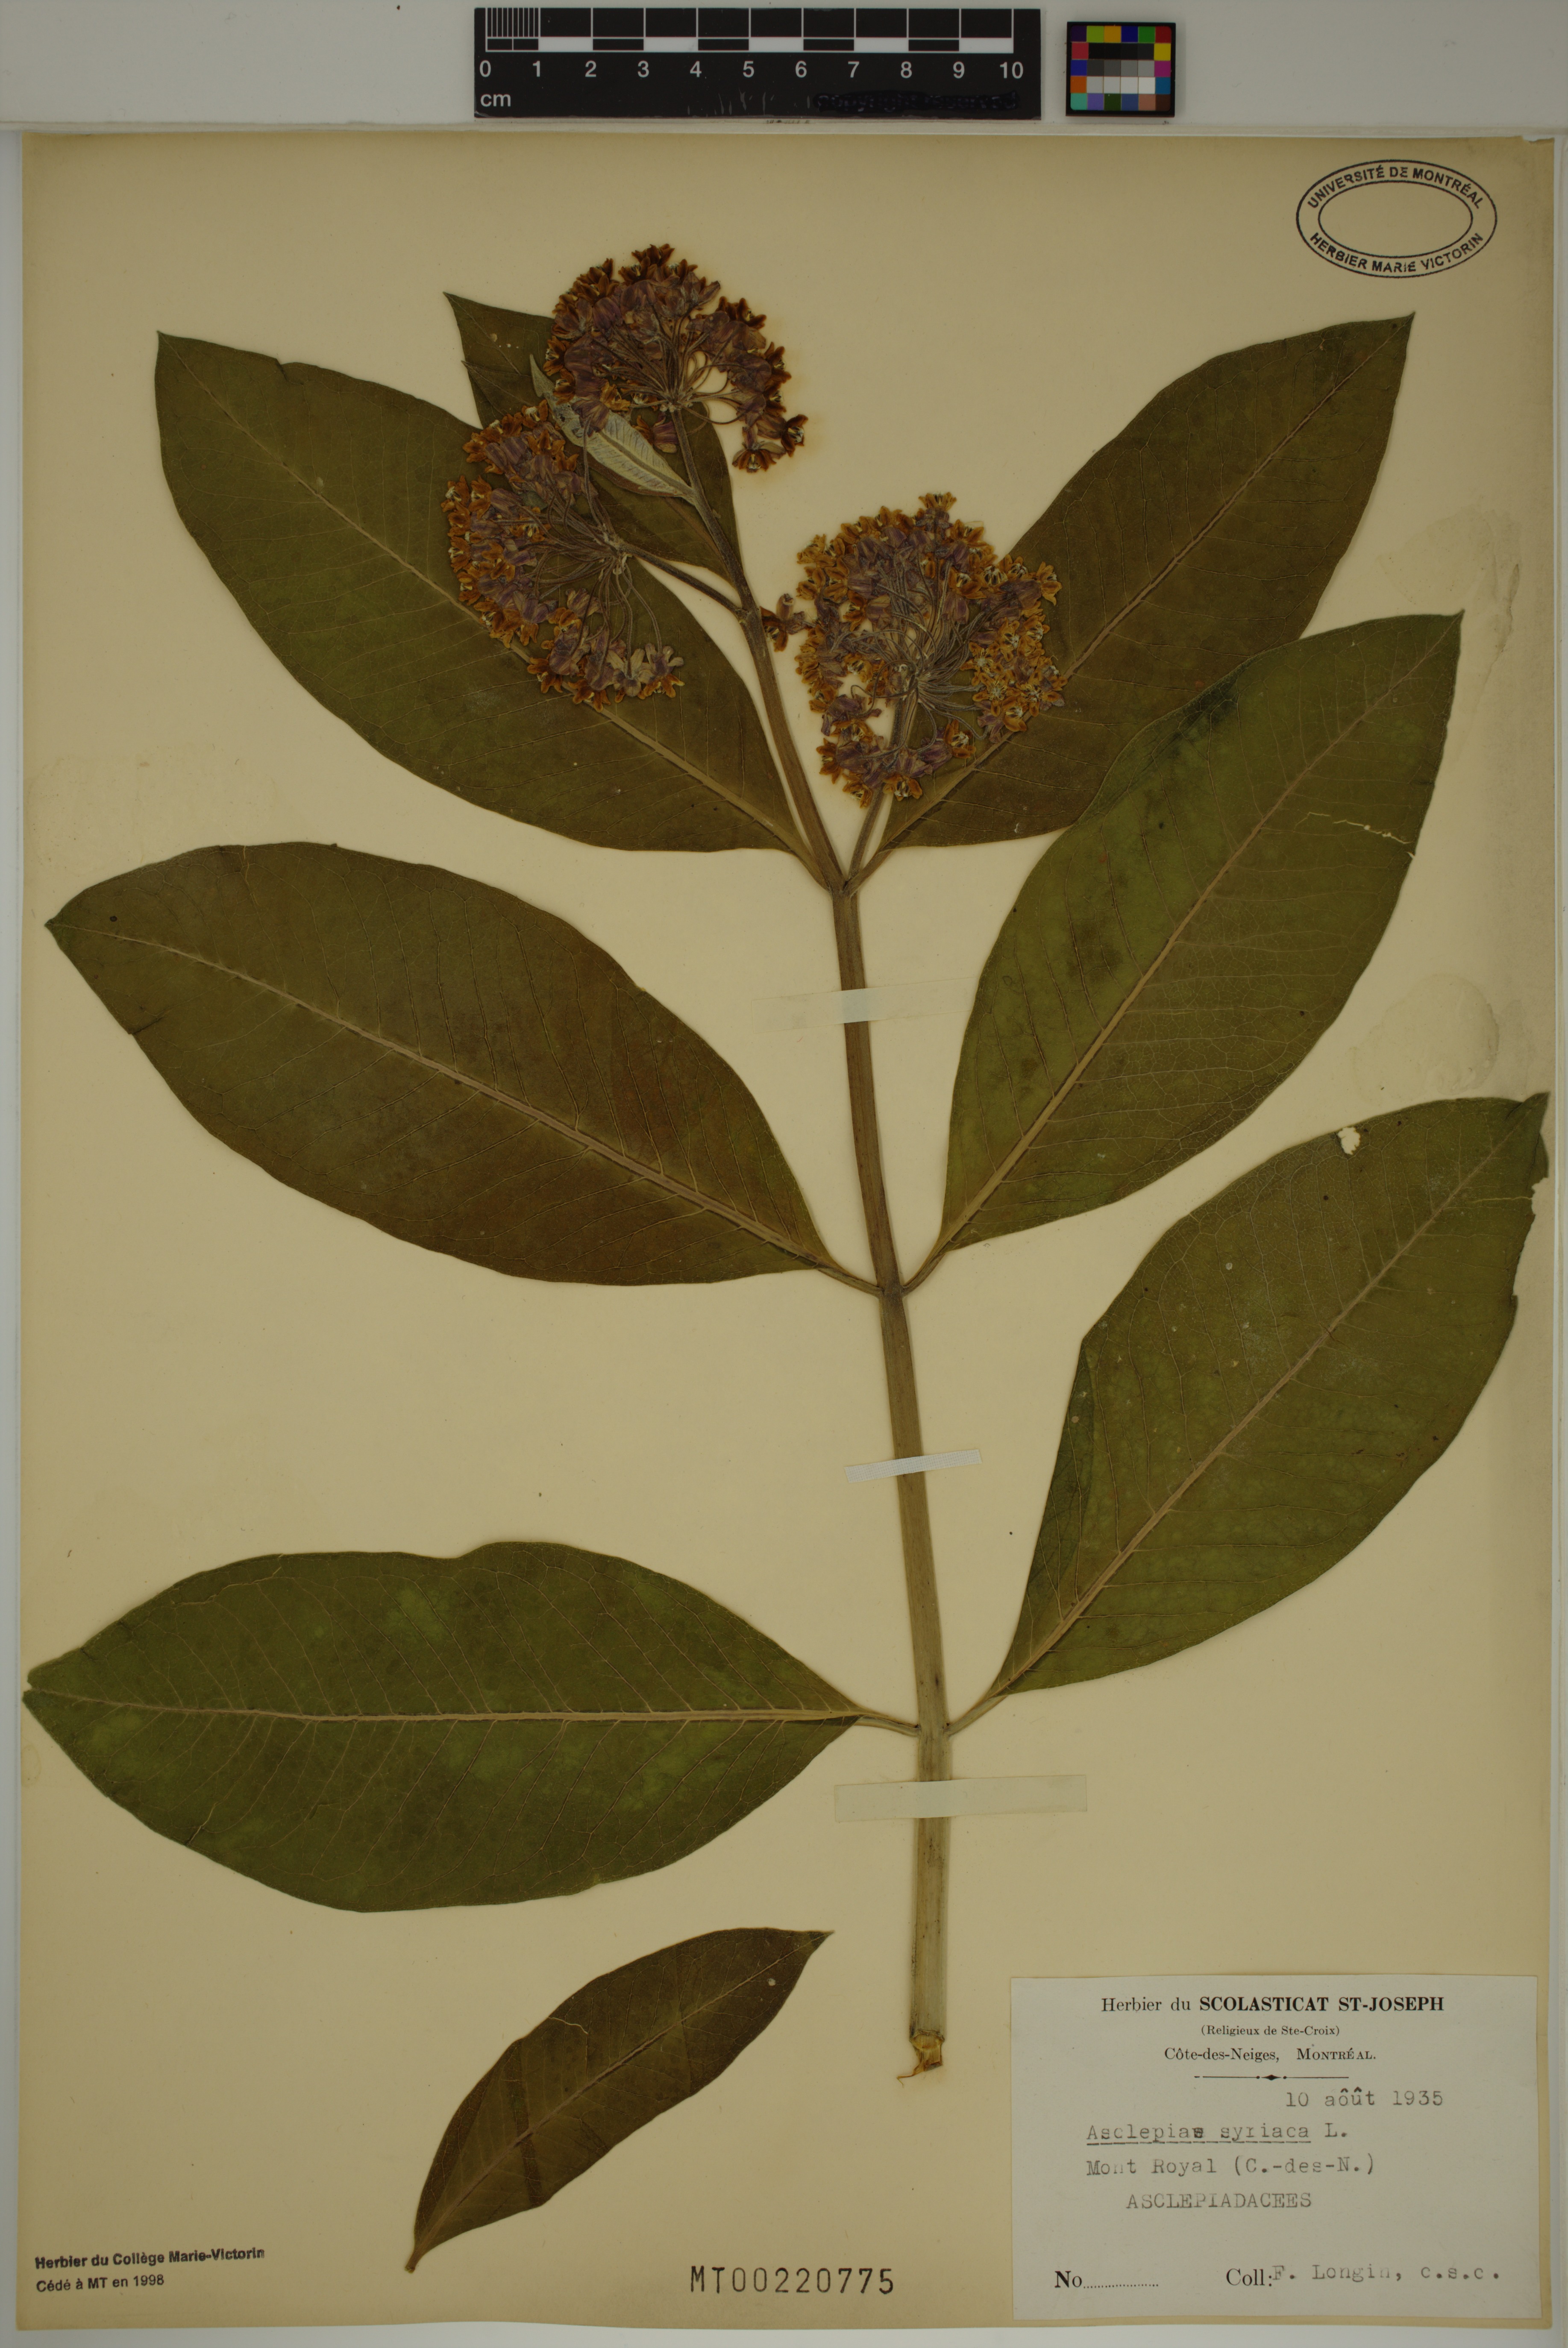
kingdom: Plantae
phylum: Tracheophyta
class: Magnoliopsida
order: Gentianales
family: Apocynaceae
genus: Asclepias
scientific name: Asclepias syriaca
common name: Common milkweed
